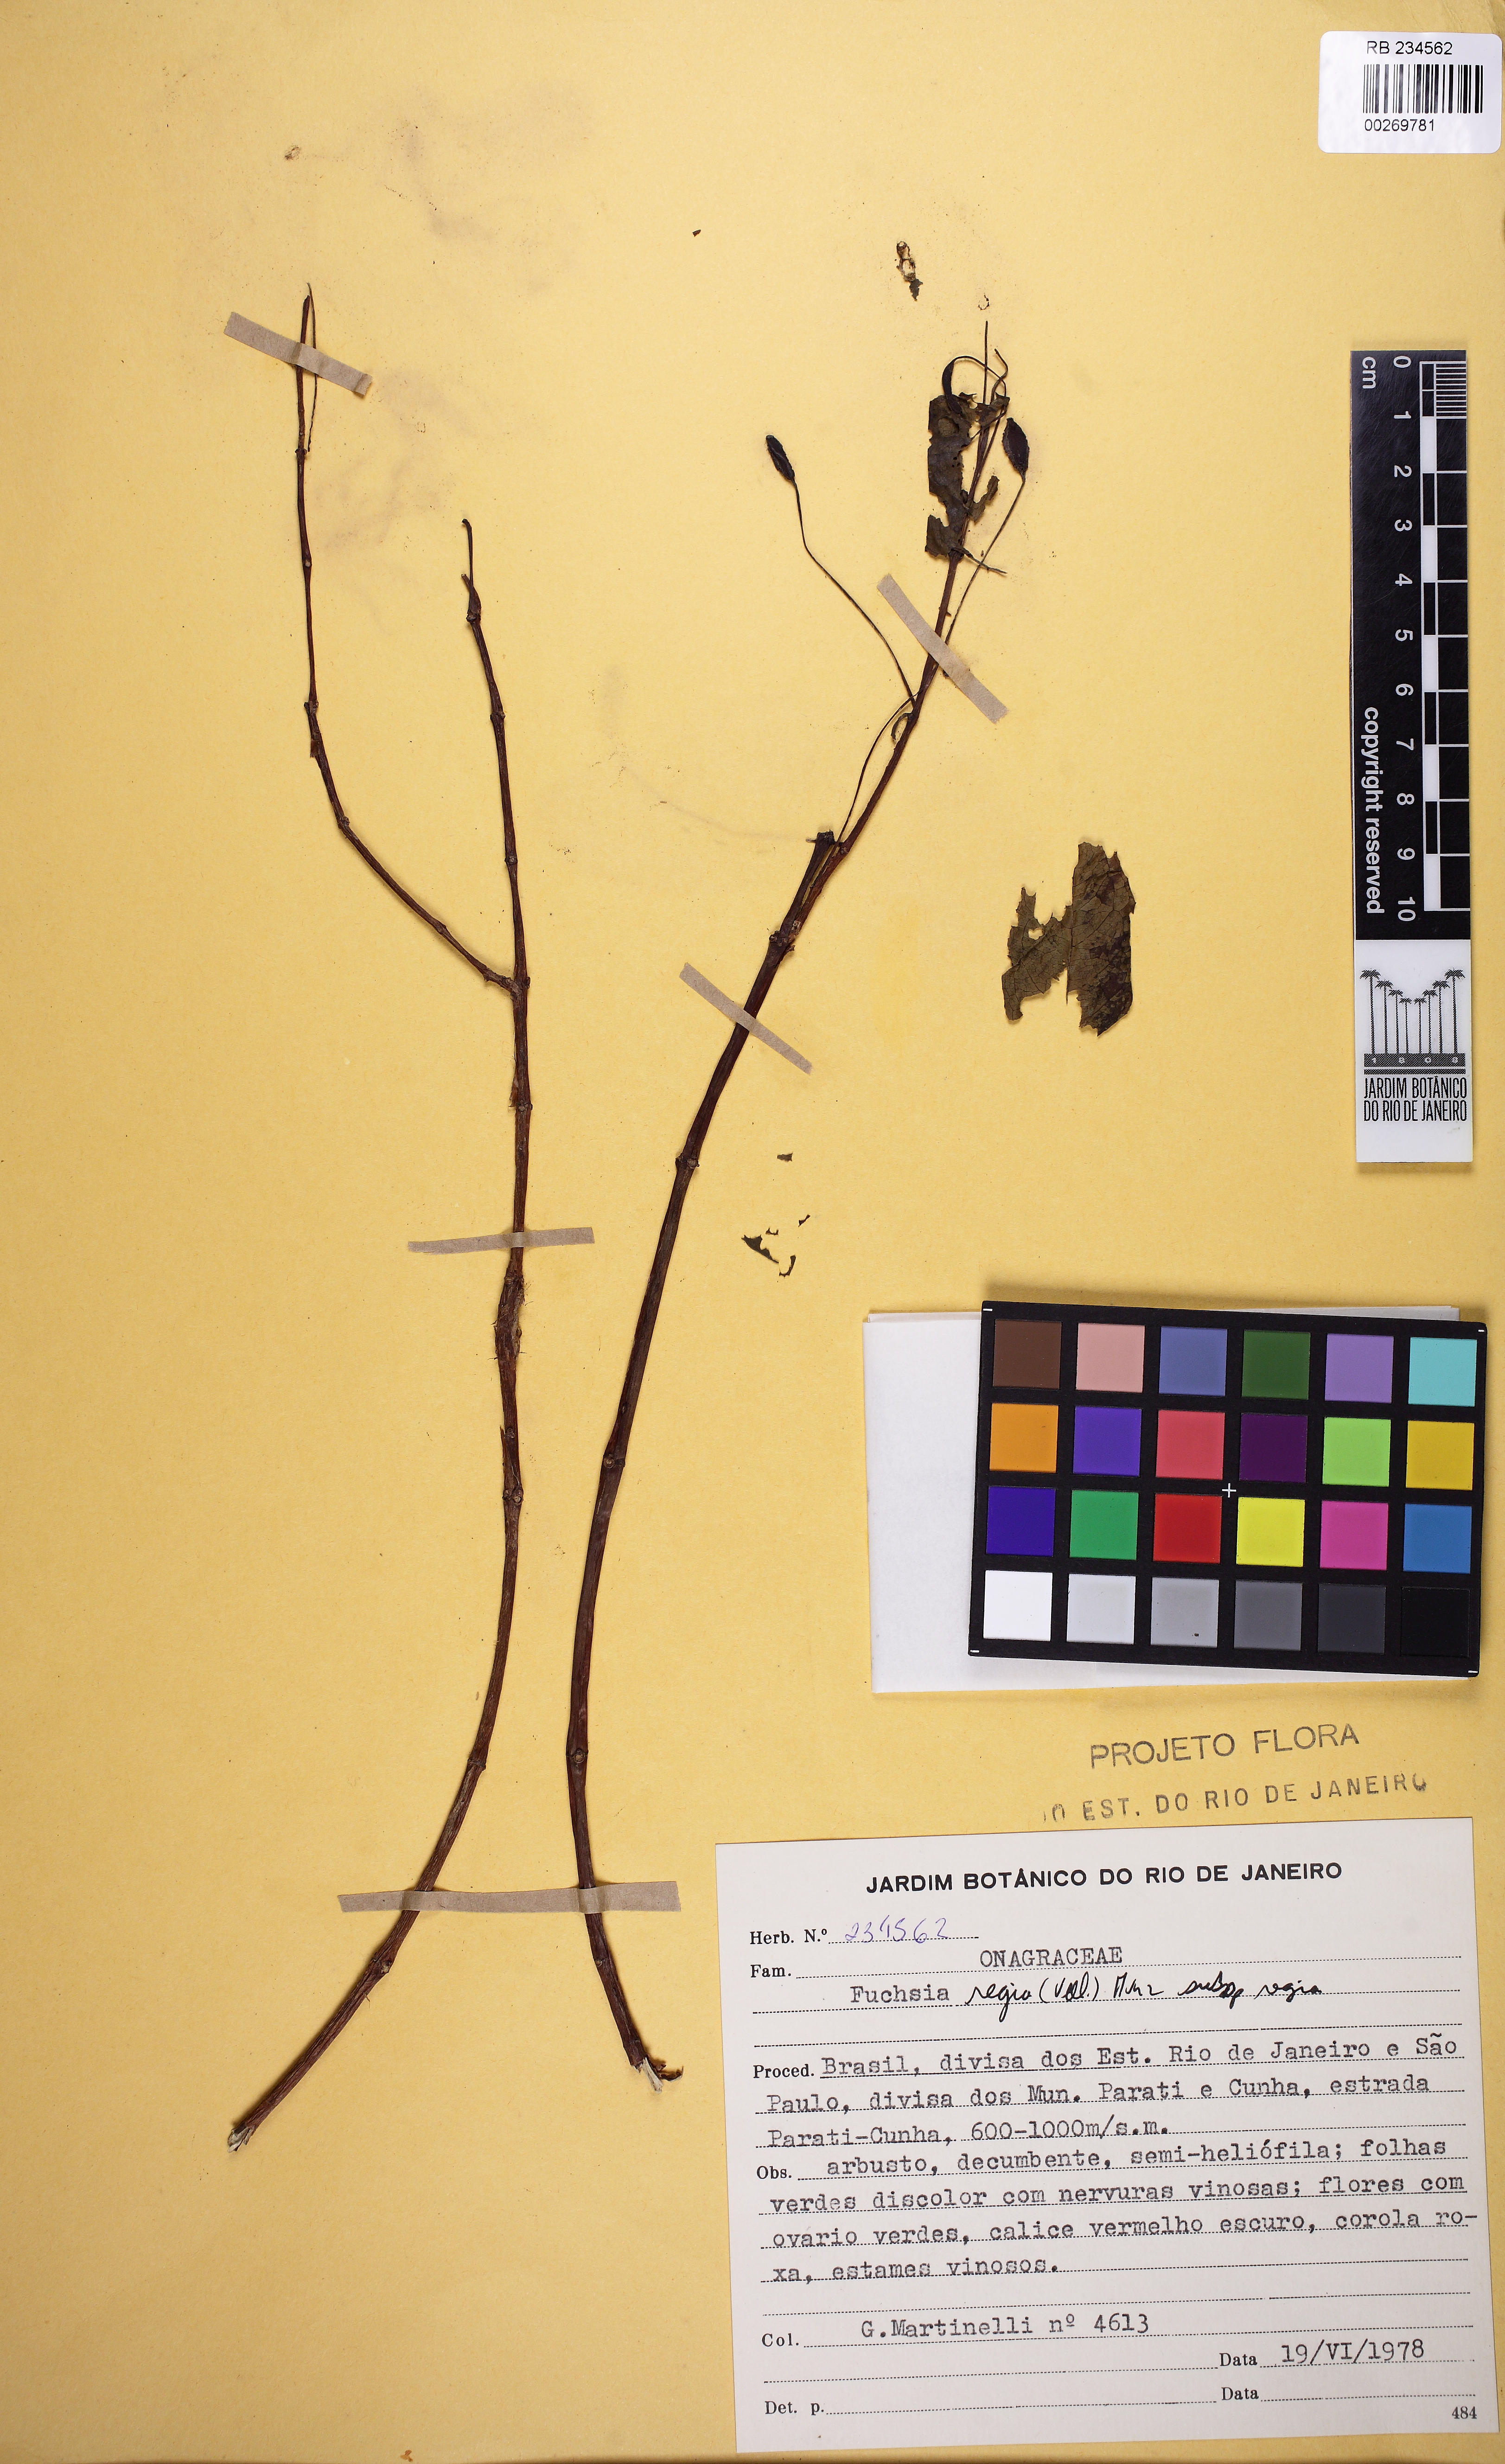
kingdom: Plantae
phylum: Tracheophyta
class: Magnoliopsida
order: Myrtales
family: Onagraceae
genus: Fuchsia
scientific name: Fuchsia regia
